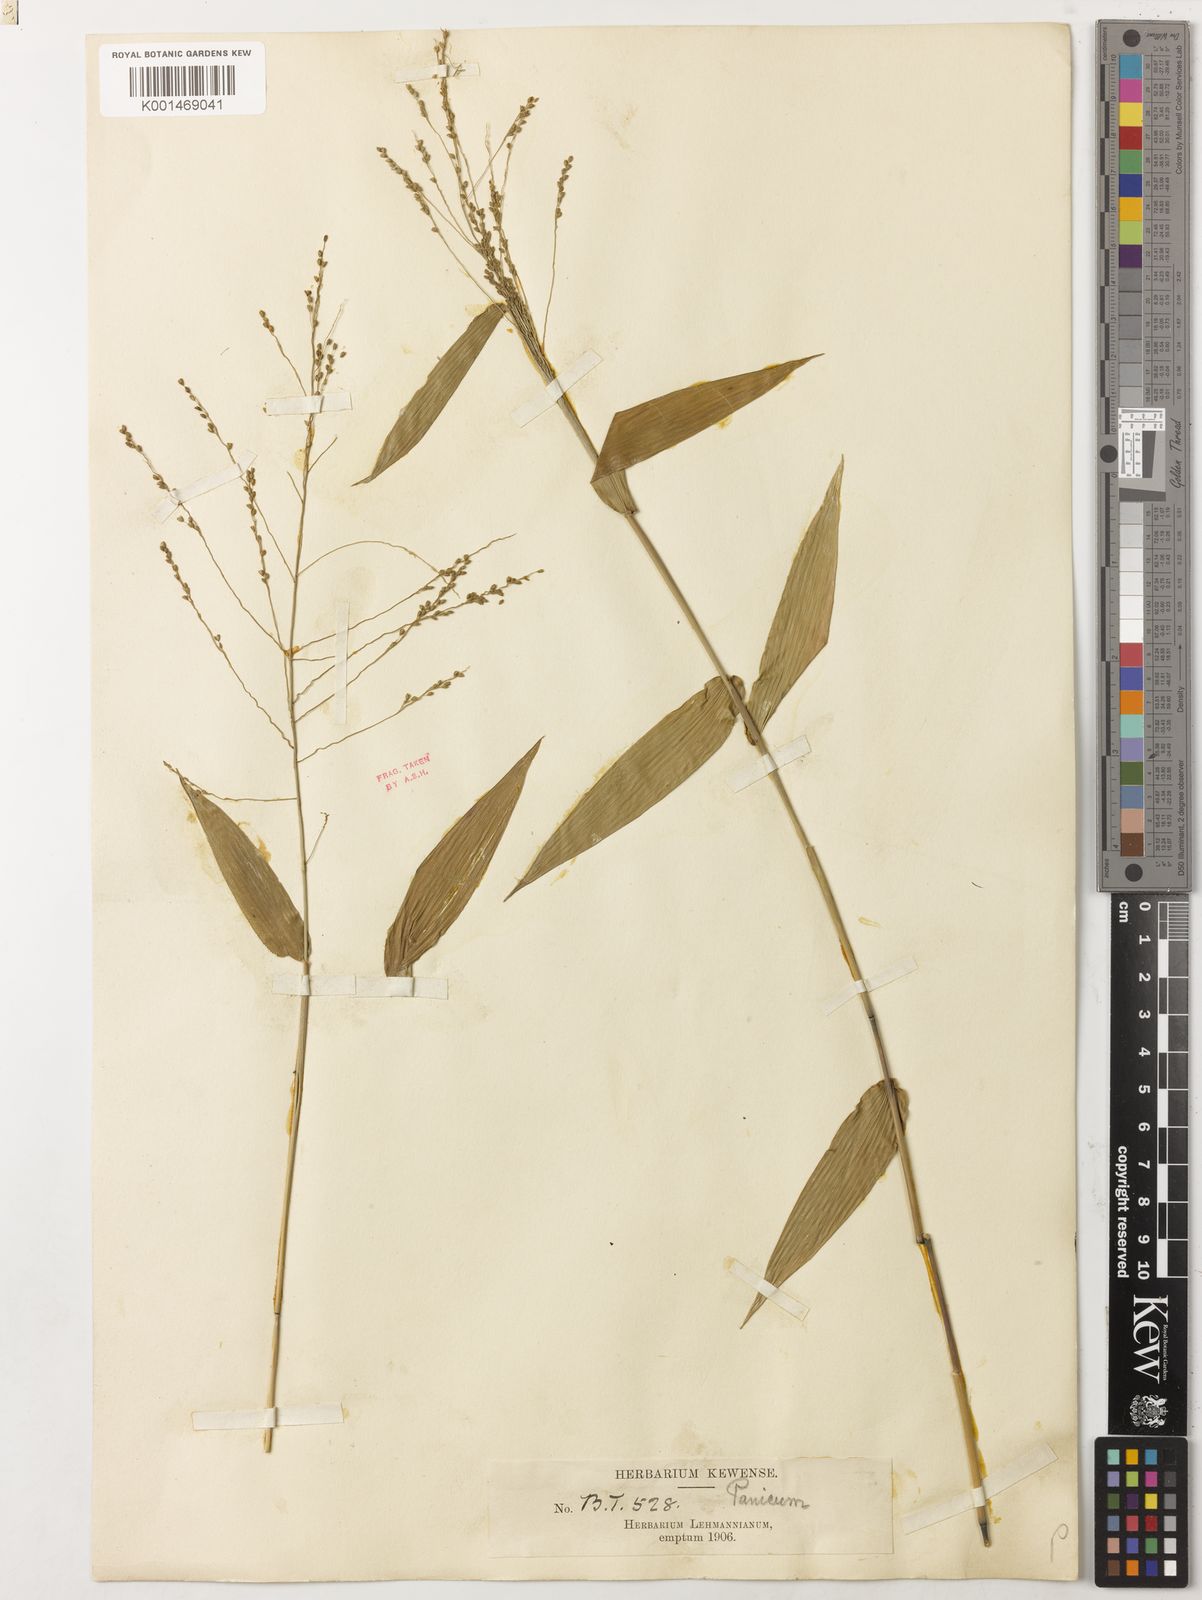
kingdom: Plantae
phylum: Tracheophyta
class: Liliopsida
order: Poales
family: Poaceae
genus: Panicum
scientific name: Panicum sellowii
